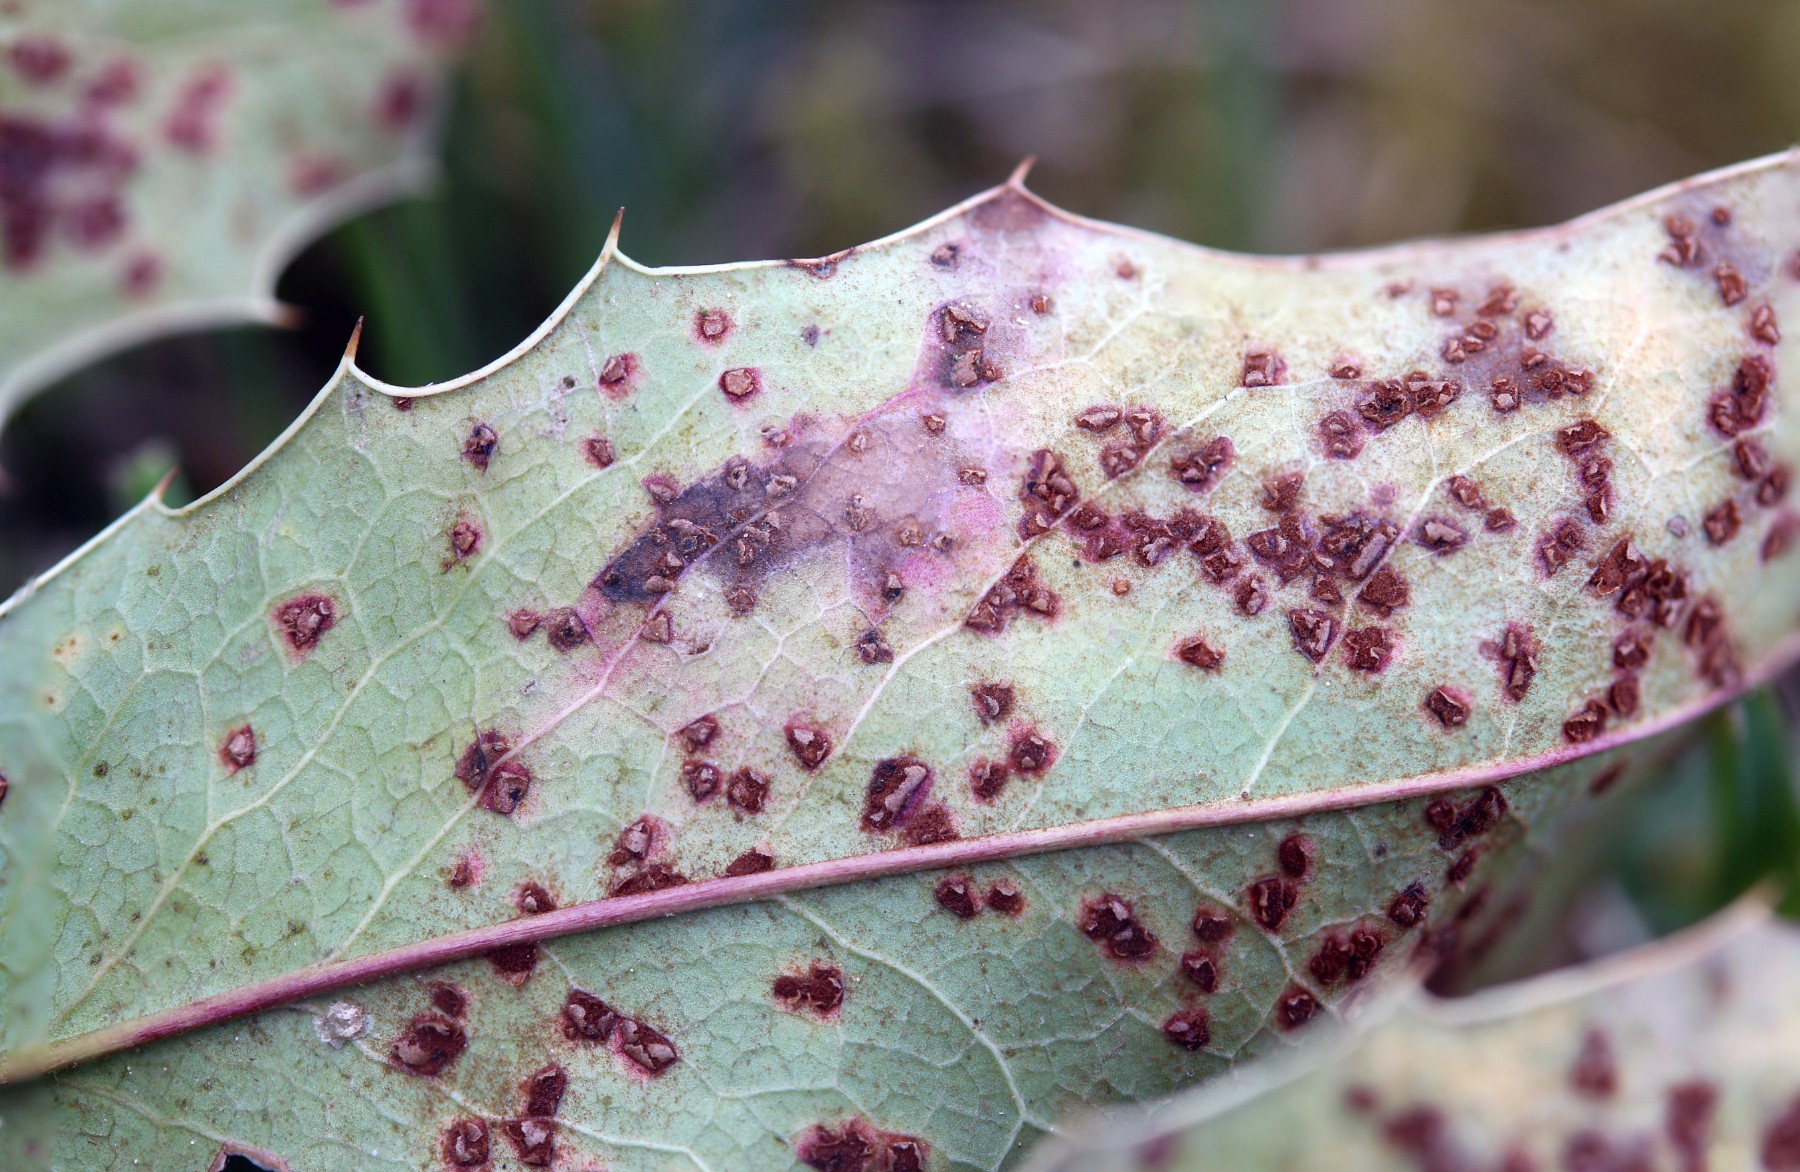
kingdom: Fungi
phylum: Basidiomycota
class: Pucciniomycetes
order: Pucciniales
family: Pucciniaceae
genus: Cumminsiella
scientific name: Cumminsiella mirabilissima
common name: mahonierust
